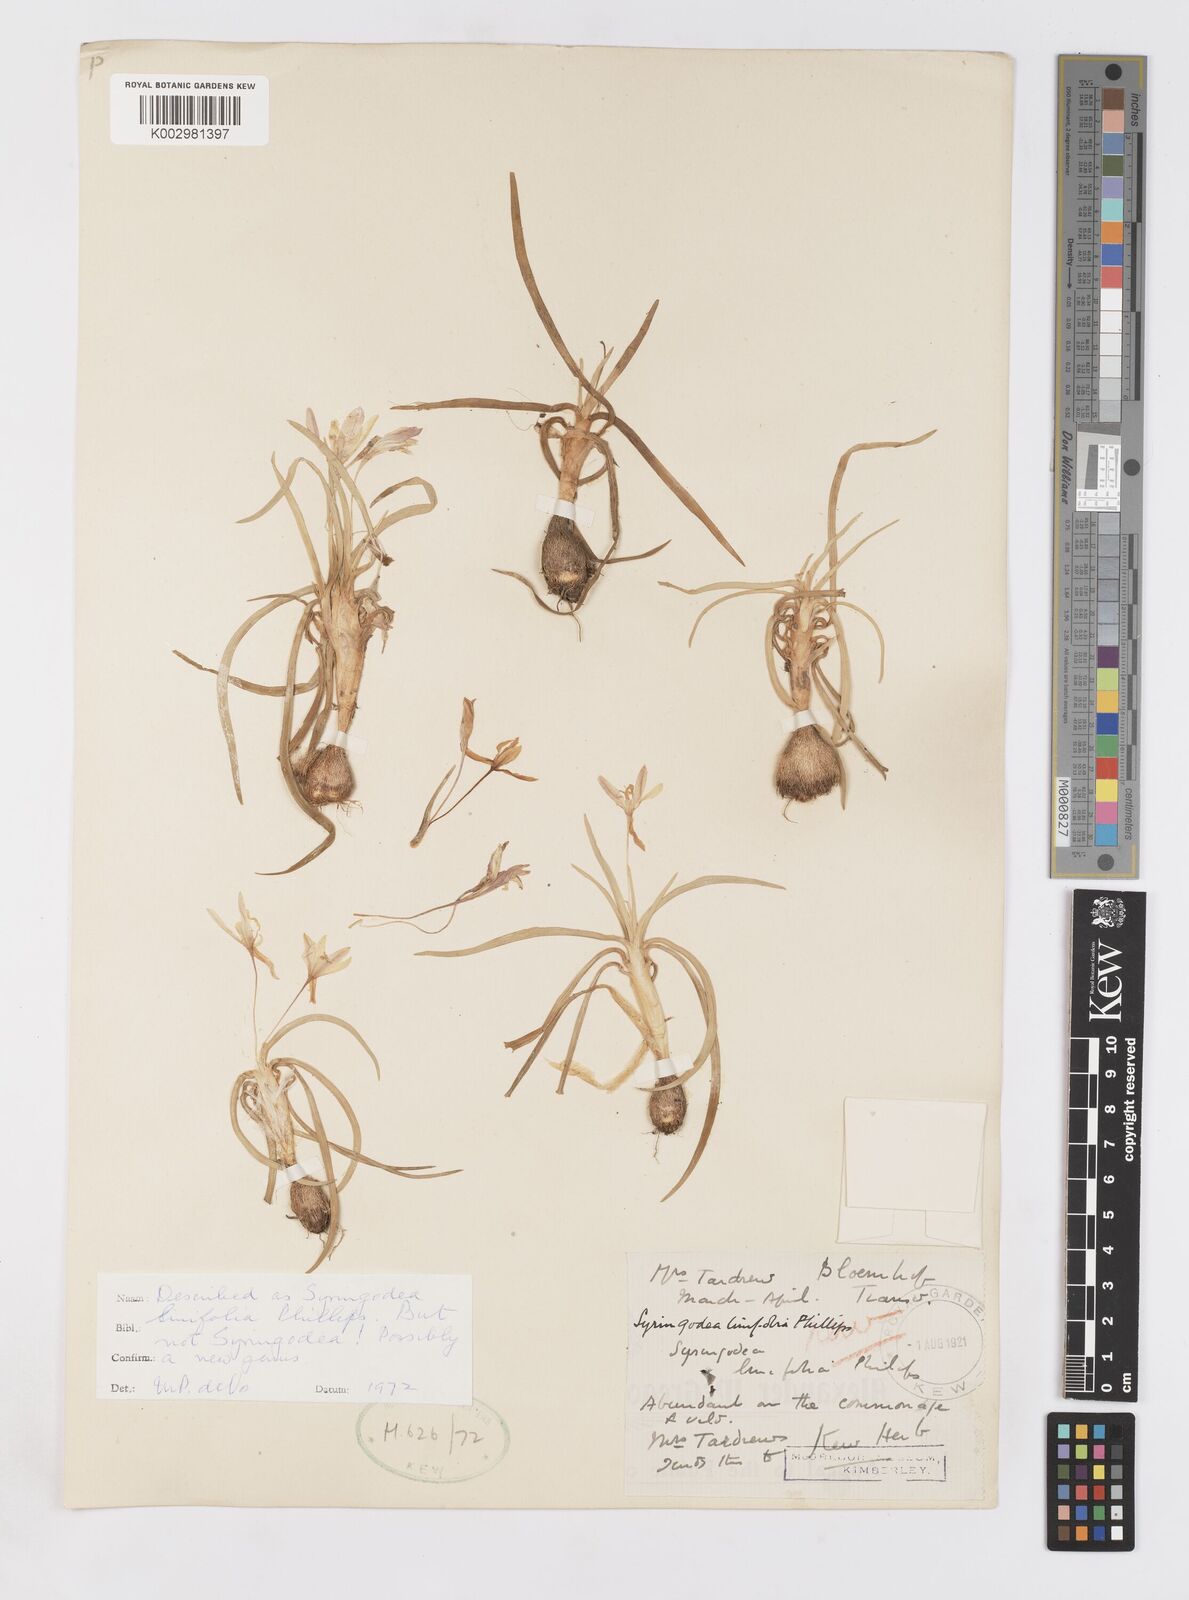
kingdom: Plantae
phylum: Tracheophyta
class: Liliopsida
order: Asparagales
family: Iridaceae
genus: Duthiastrum
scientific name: Duthiastrum linifolium
